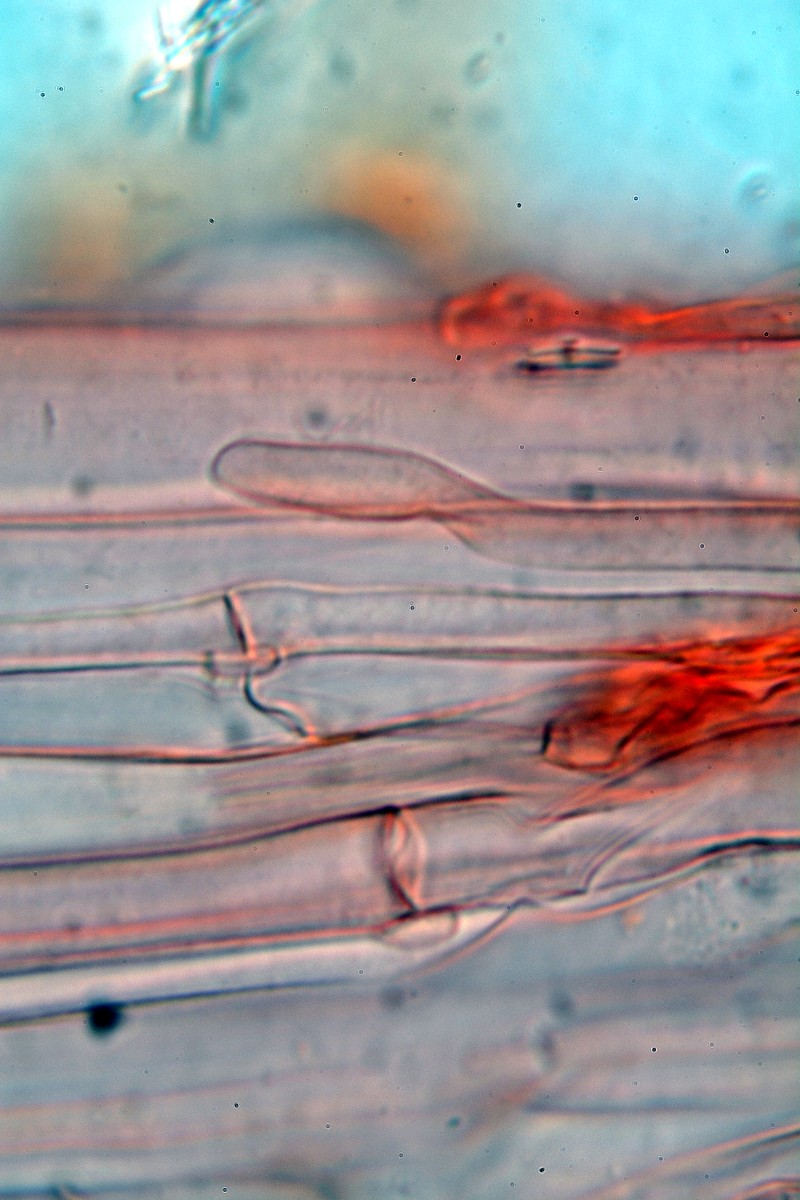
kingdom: Fungi
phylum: Basidiomycota
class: Agaricomycetes
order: Agaricales
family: Psathyrellaceae
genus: Psathyrella
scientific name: Psathyrella
